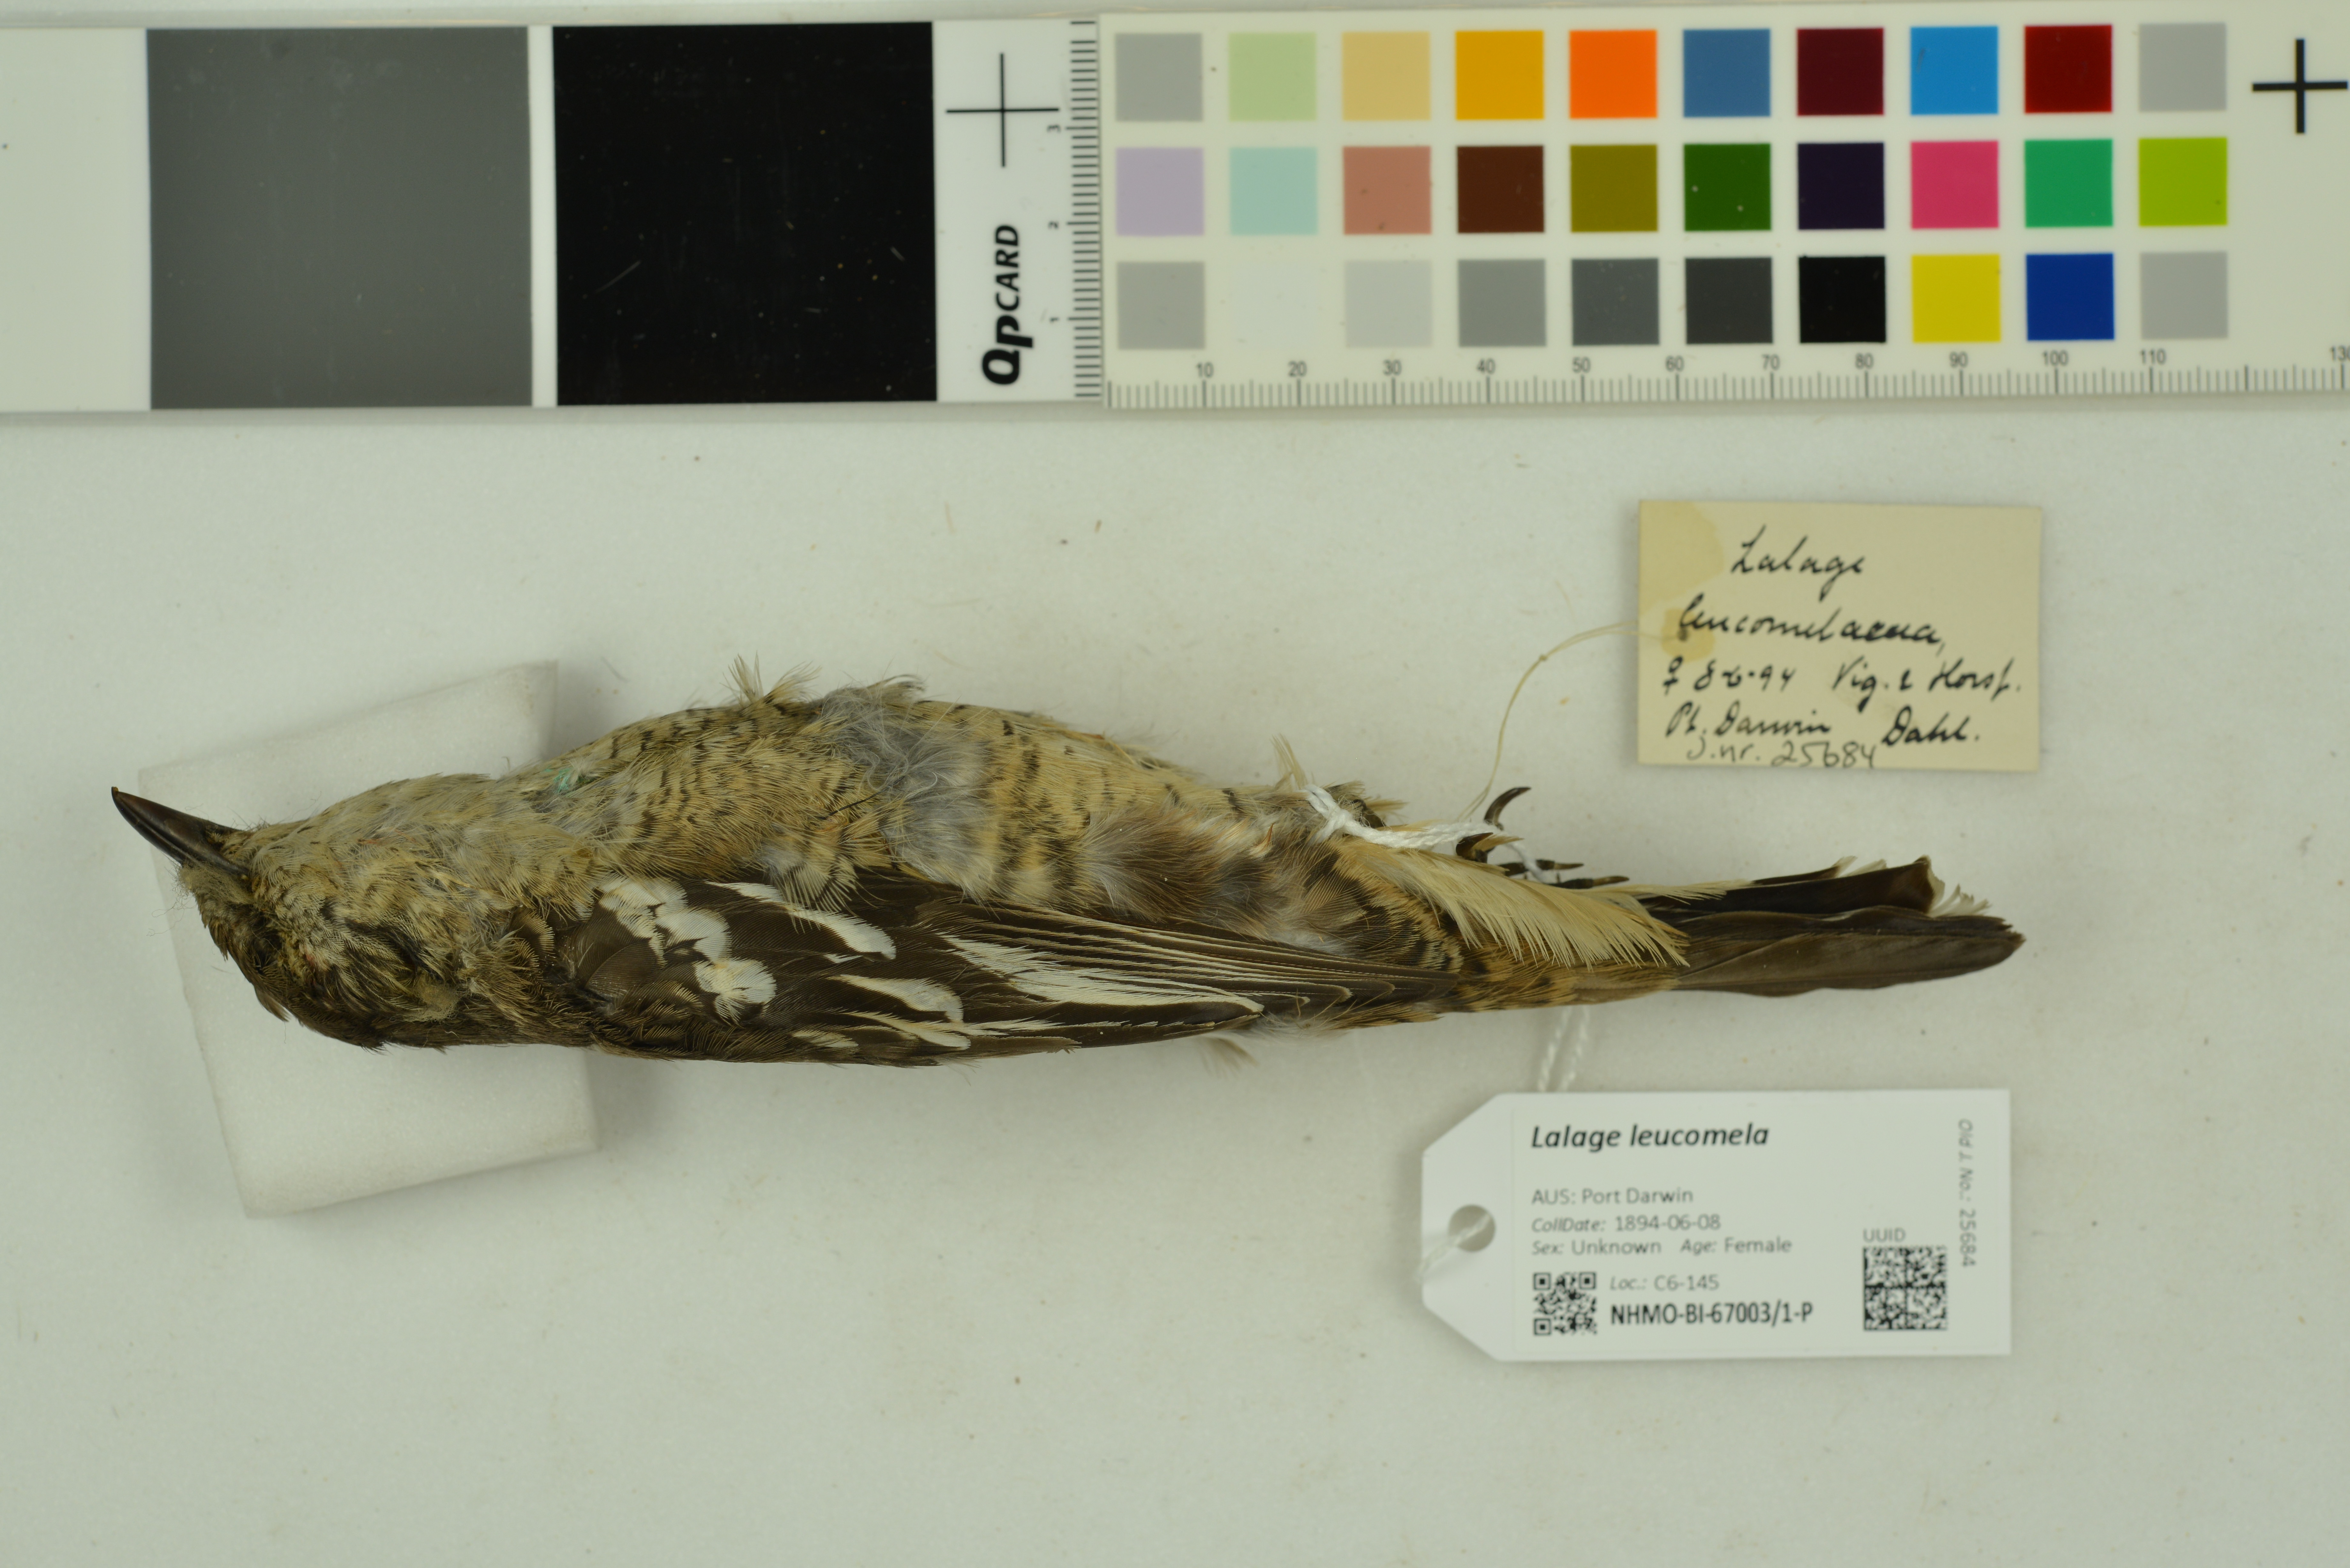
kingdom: Animalia
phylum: Chordata
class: Aves
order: Passeriformes
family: Campephagidae
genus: Lalage
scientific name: Lalage leucomela
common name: Varied triller
